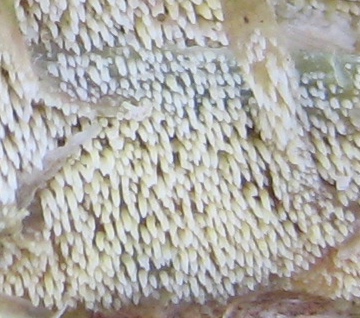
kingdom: Fungi
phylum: Basidiomycota
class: Agaricomycetes
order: Polyporales
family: Meruliaceae
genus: Mycoacia
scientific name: Mycoacia uda
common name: citrongul vokspig
